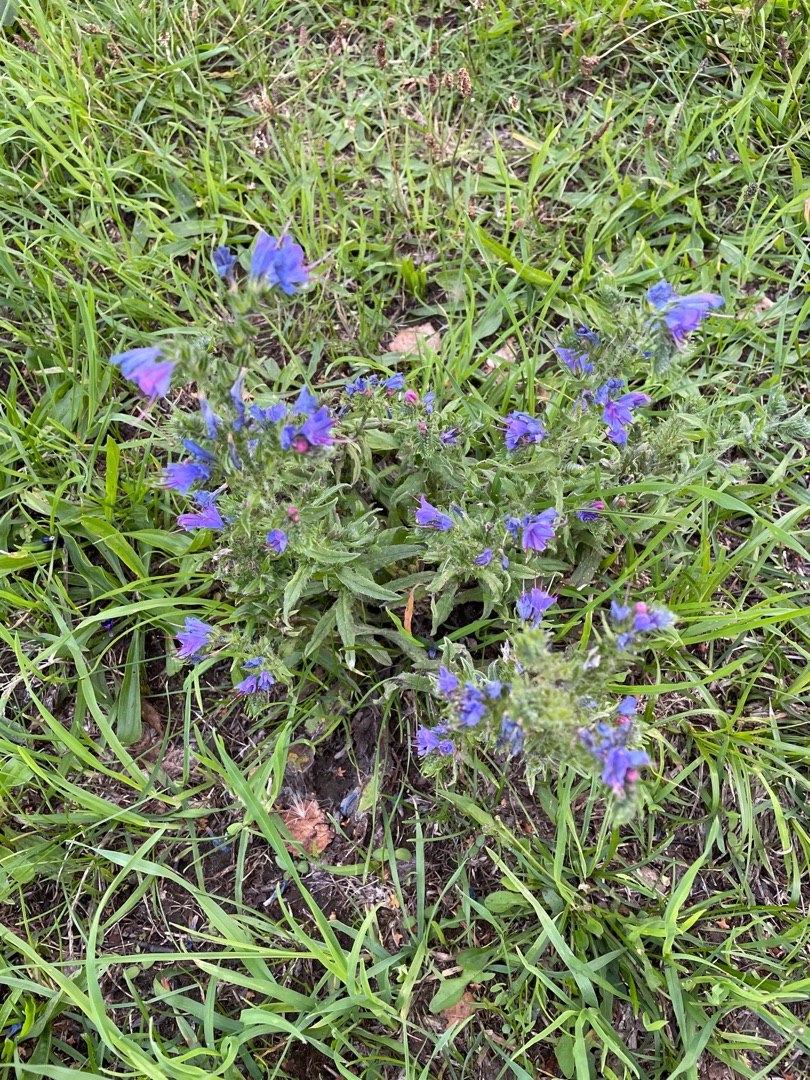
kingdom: Plantae
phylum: Tracheophyta
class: Magnoliopsida
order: Boraginales
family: Boraginaceae
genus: Echium
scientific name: Echium vulgare
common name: Slangehoved
